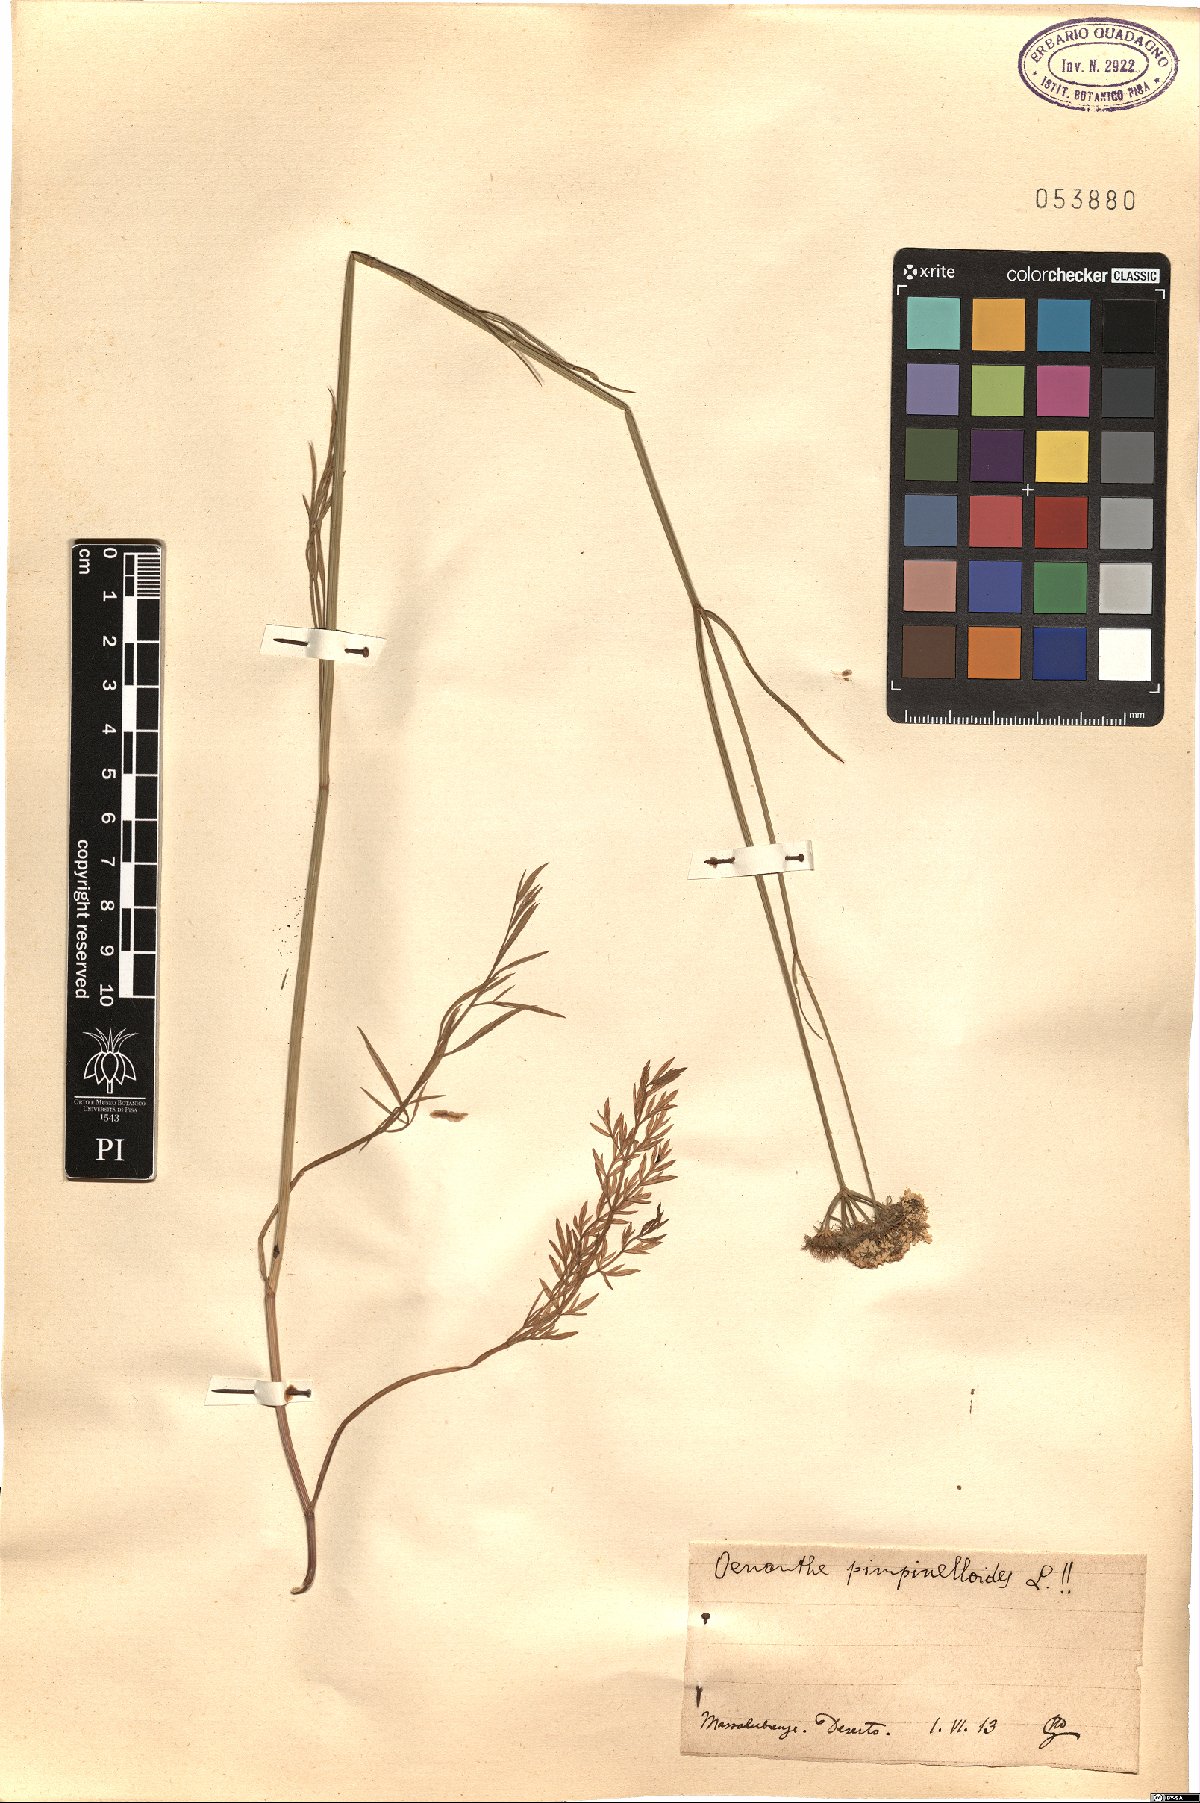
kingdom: Plantae
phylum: Tracheophyta
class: Magnoliopsida
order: Apiales
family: Apiaceae
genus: Oenanthe
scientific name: Oenanthe pimpinelloides
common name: Corky-fruited water-dropwort
